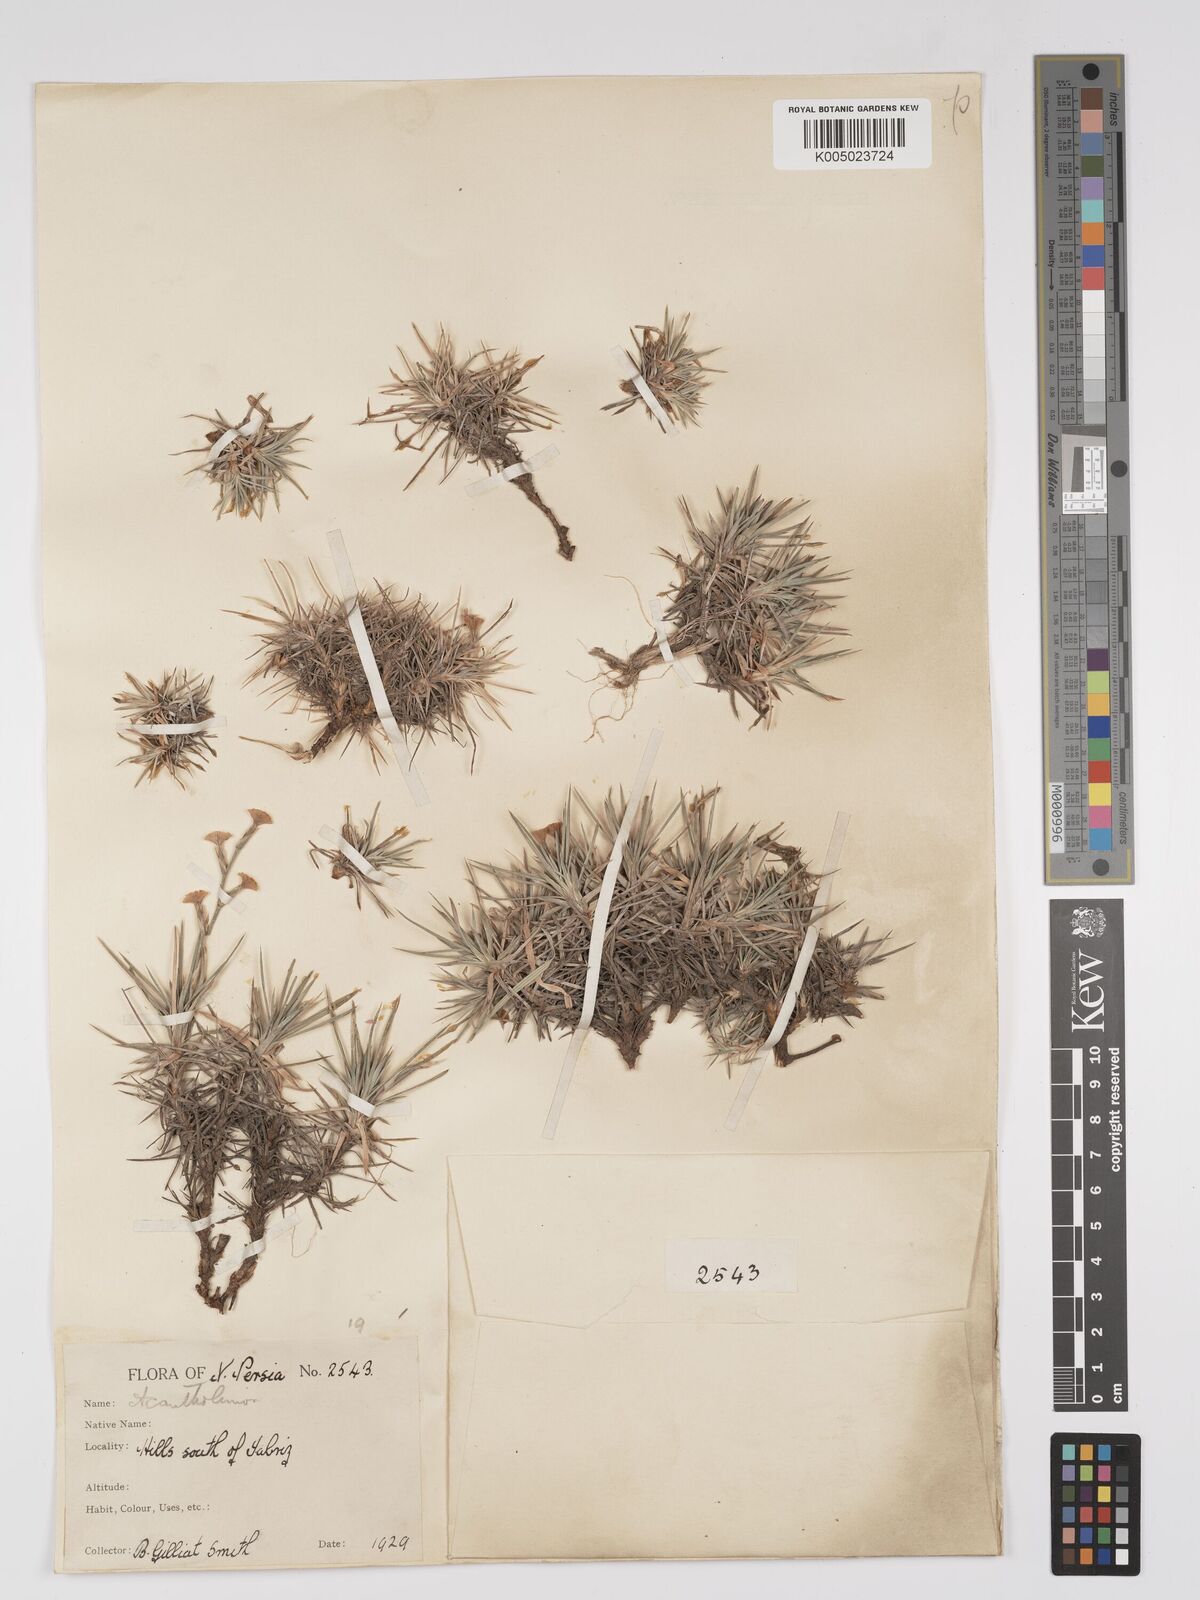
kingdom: Plantae
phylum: Tracheophyta
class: Magnoliopsida
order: Caryophyllales
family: Plumbaginaceae
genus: Acantholimon
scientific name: Acantholimon venustum
